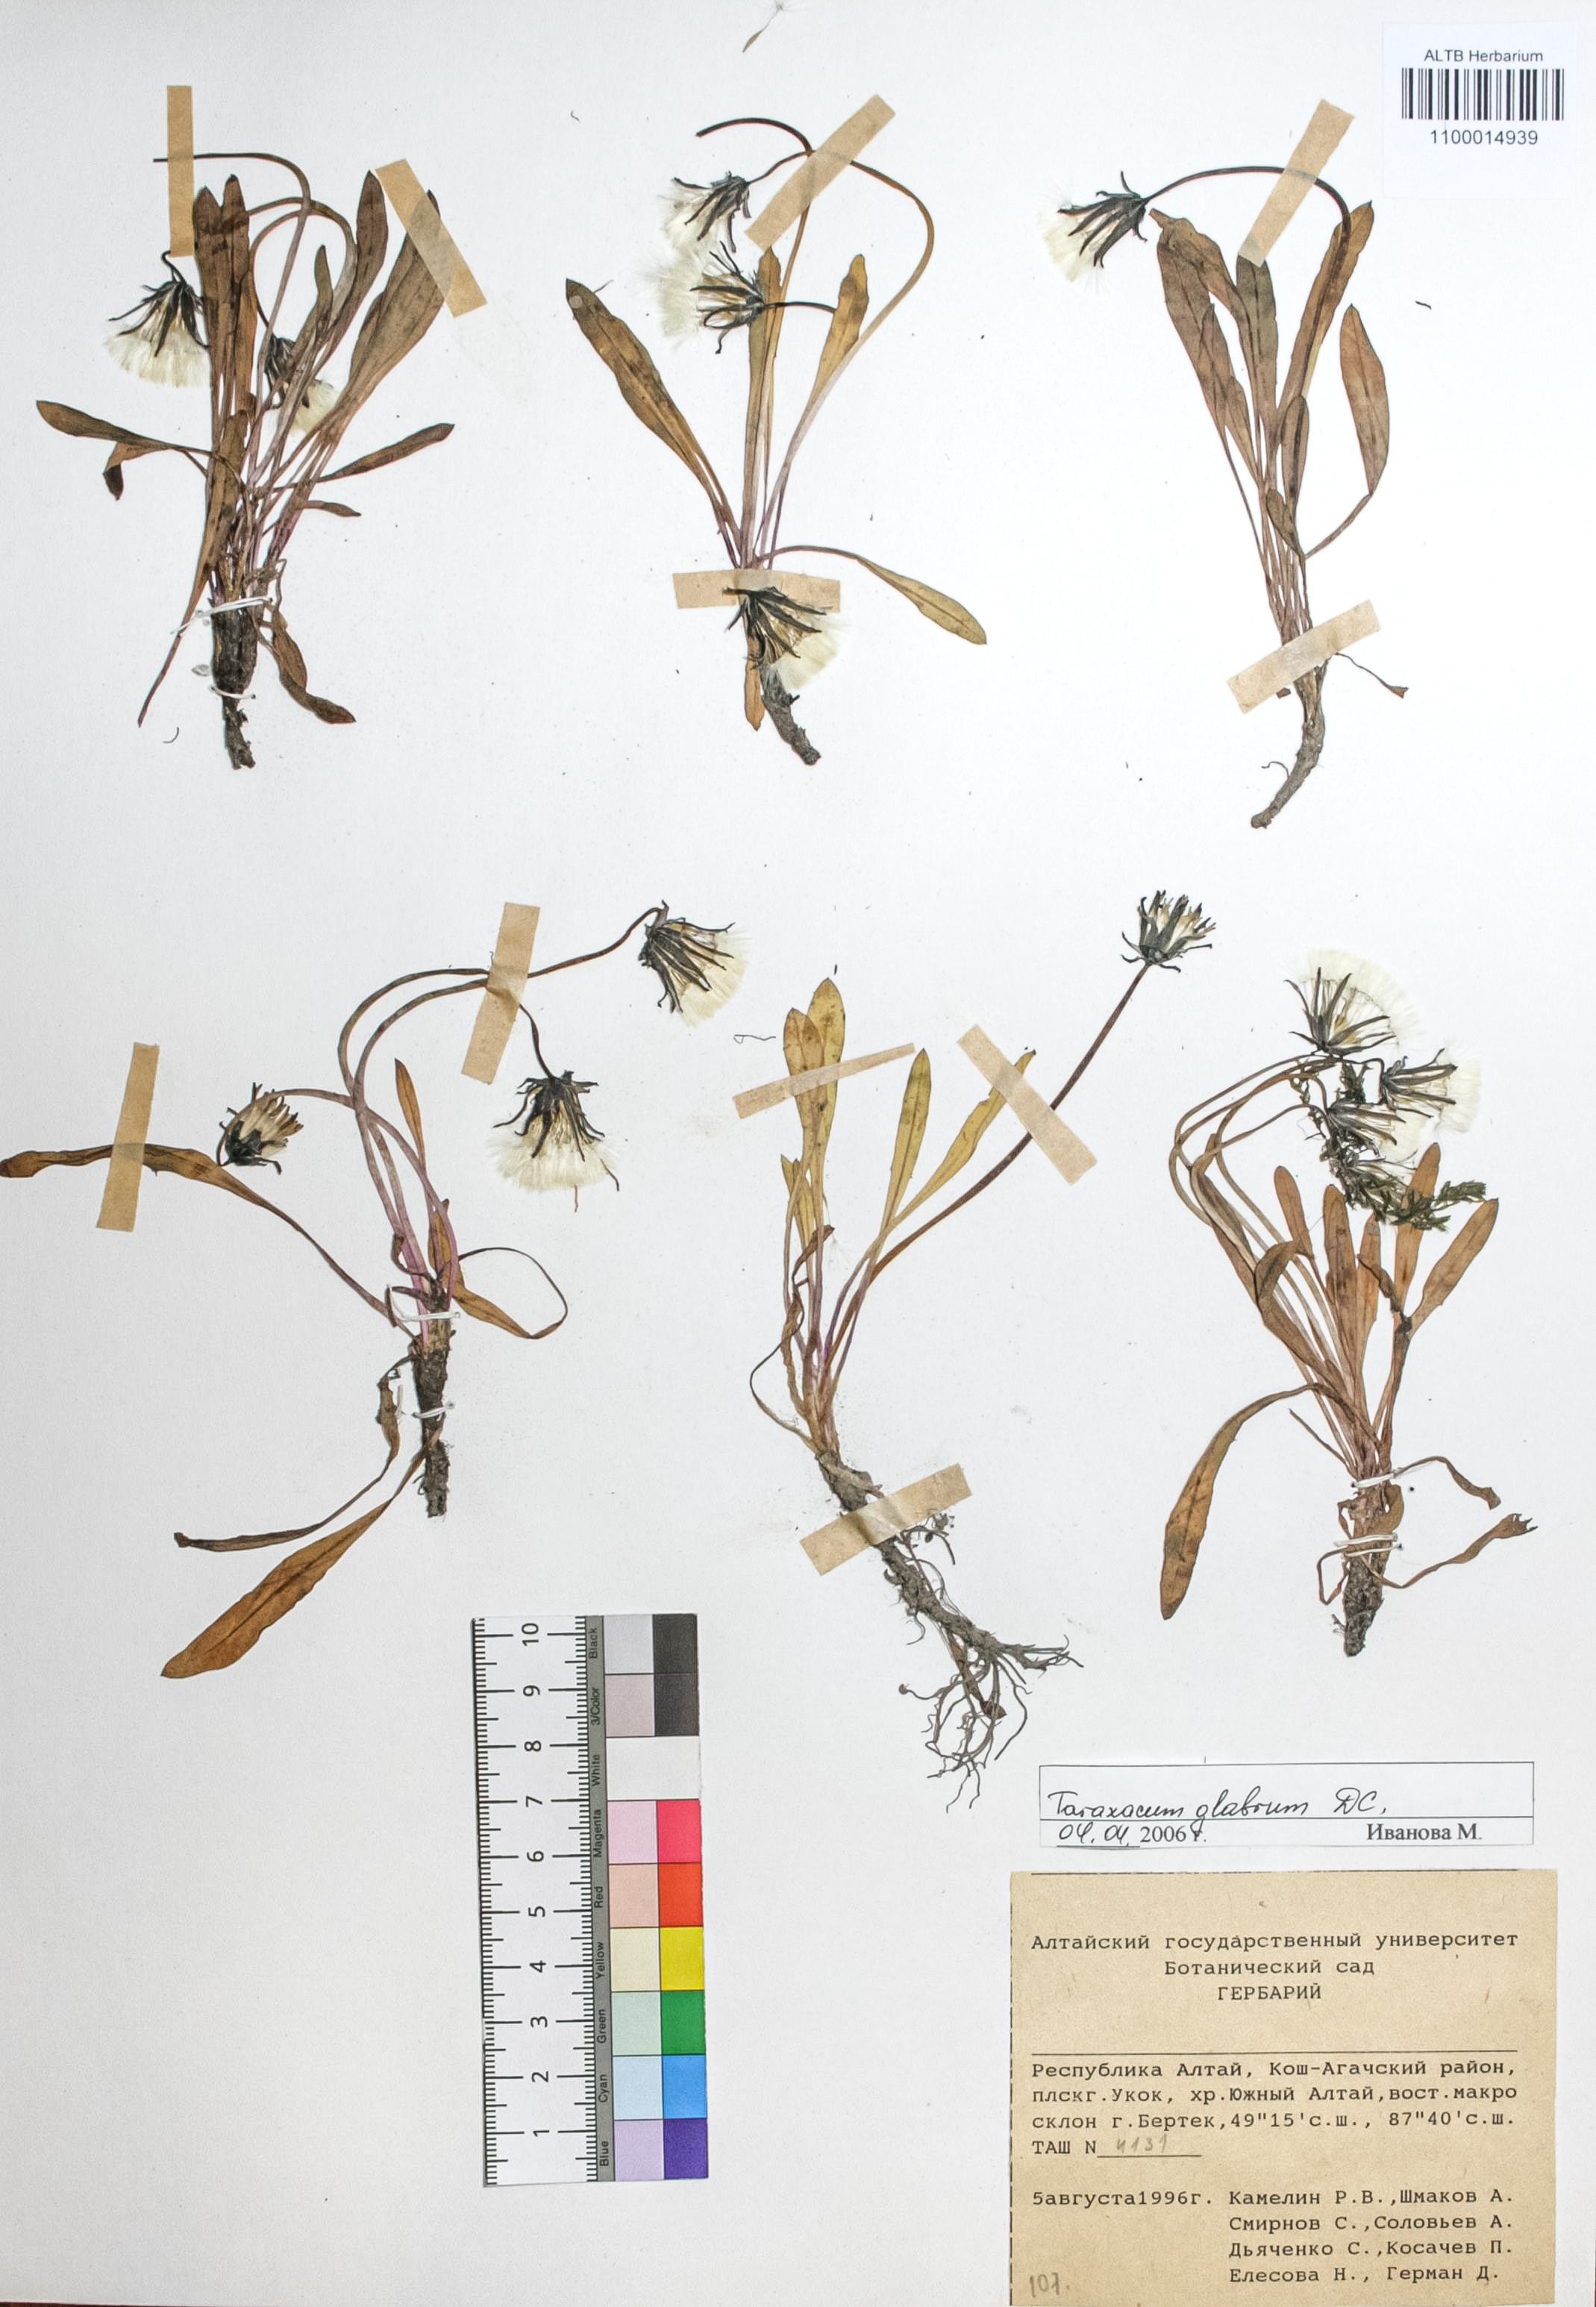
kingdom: Plantae
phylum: Tracheophyta
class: Magnoliopsida
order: Asterales
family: Asteraceae
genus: Taraxacum
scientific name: Taraxacum glabrum
